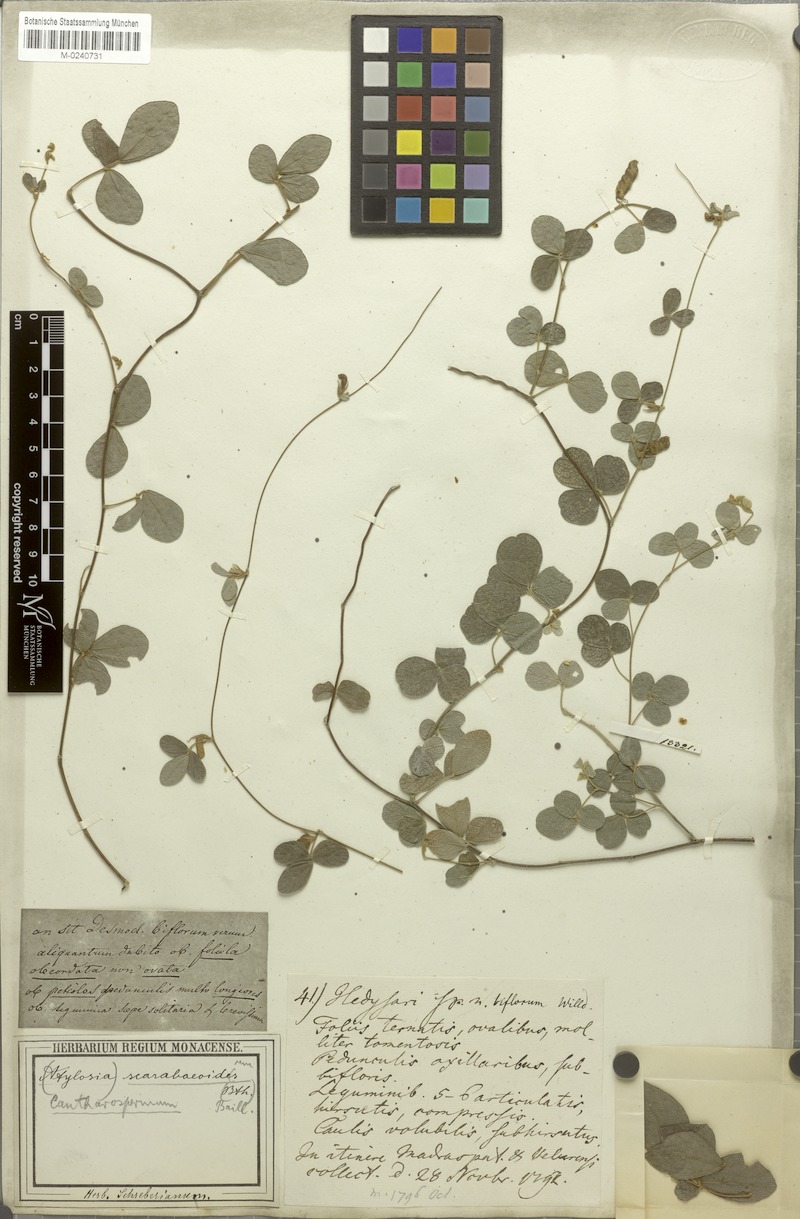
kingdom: Plantae
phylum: Tracheophyta
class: Magnoliopsida
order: Fabales
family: Fabaceae
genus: Cajanus
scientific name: Cajanus scarabaeoides
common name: Showy pigeonpea
